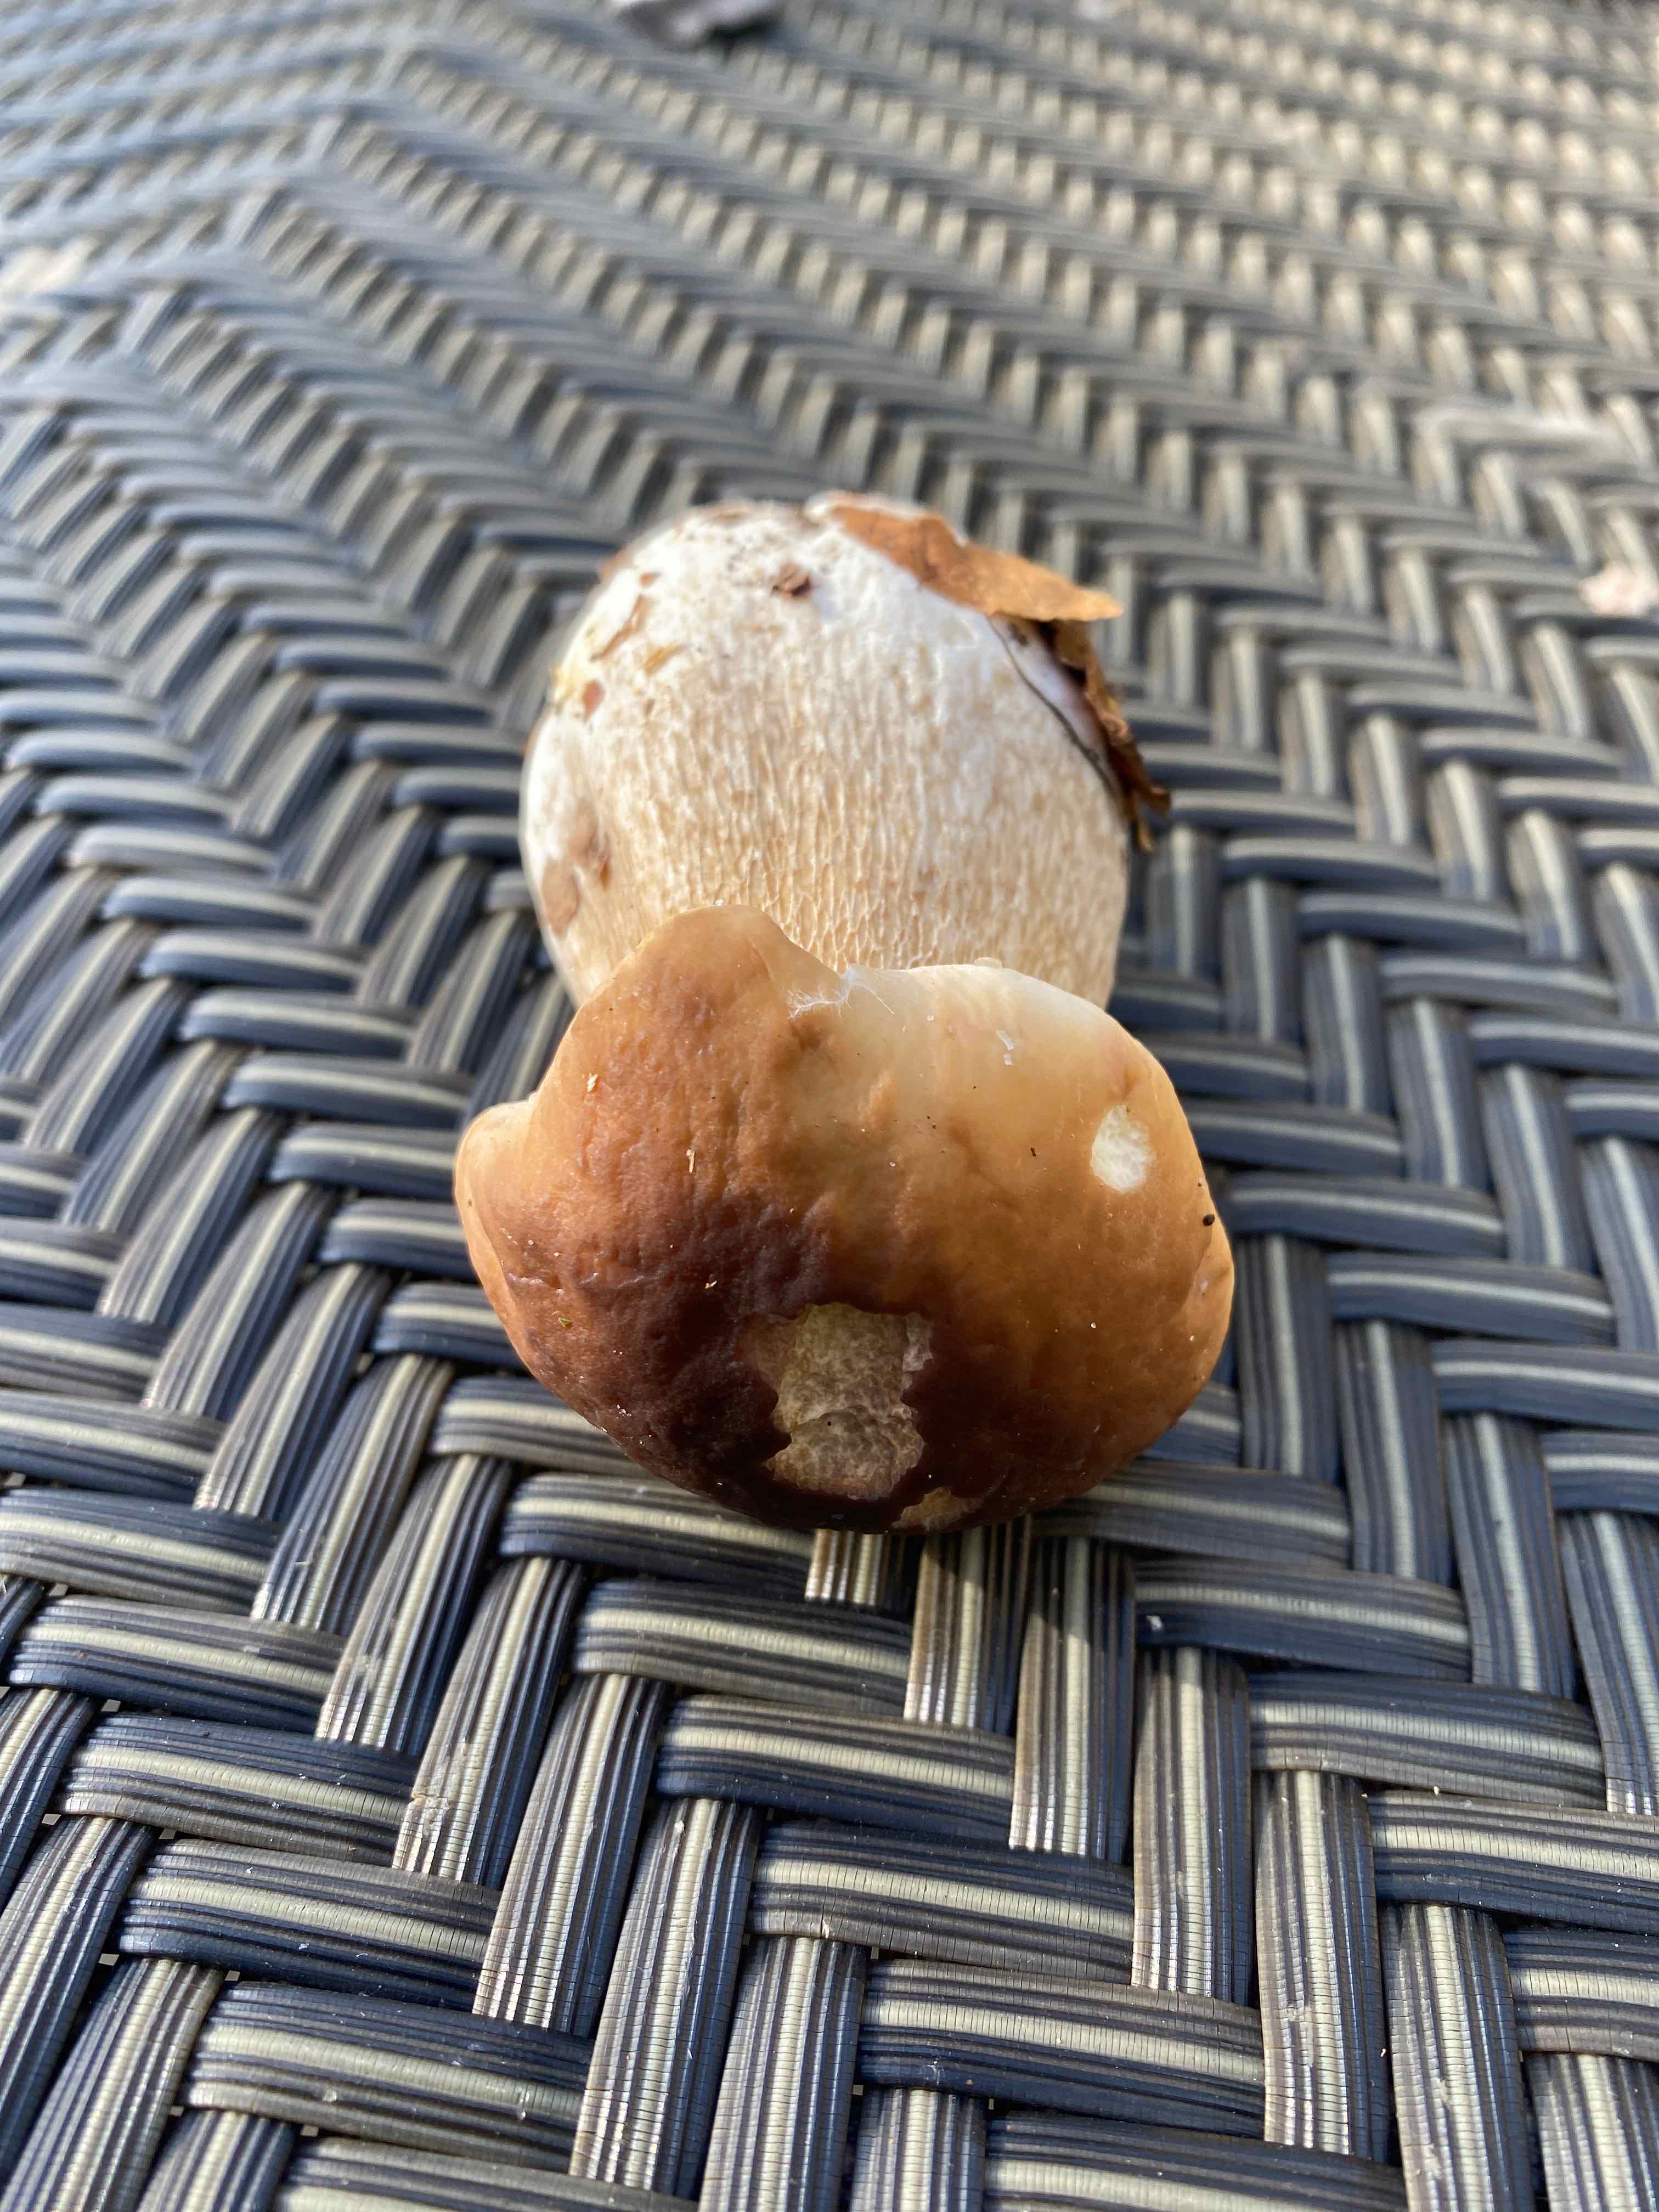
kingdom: Fungi
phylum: Basidiomycota
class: Agaricomycetes
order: Boletales
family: Boletaceae
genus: Boletus
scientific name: Boletus edulis
